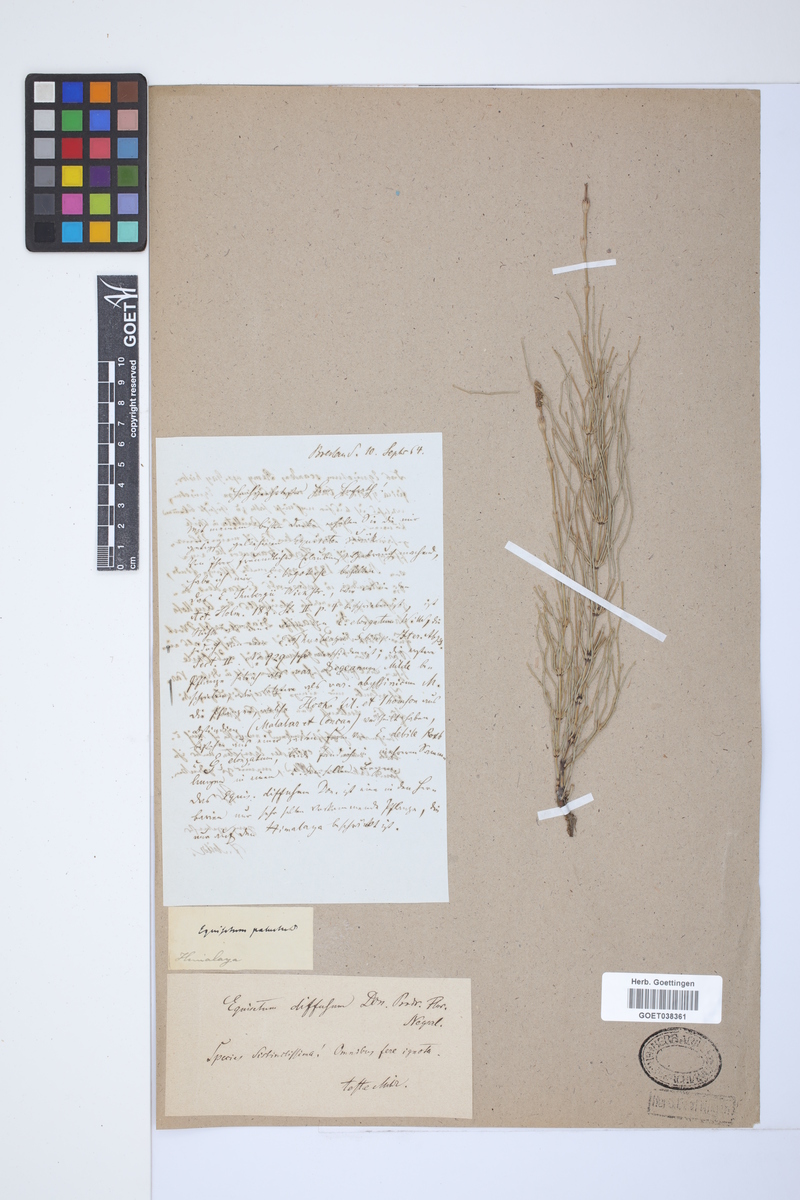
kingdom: Plantae
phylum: Tracheophyta
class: Polypodiopsida
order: Equisetales
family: Equisetaceae
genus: Equisetum
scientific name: Equisetum arvense
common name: Field horsetail
